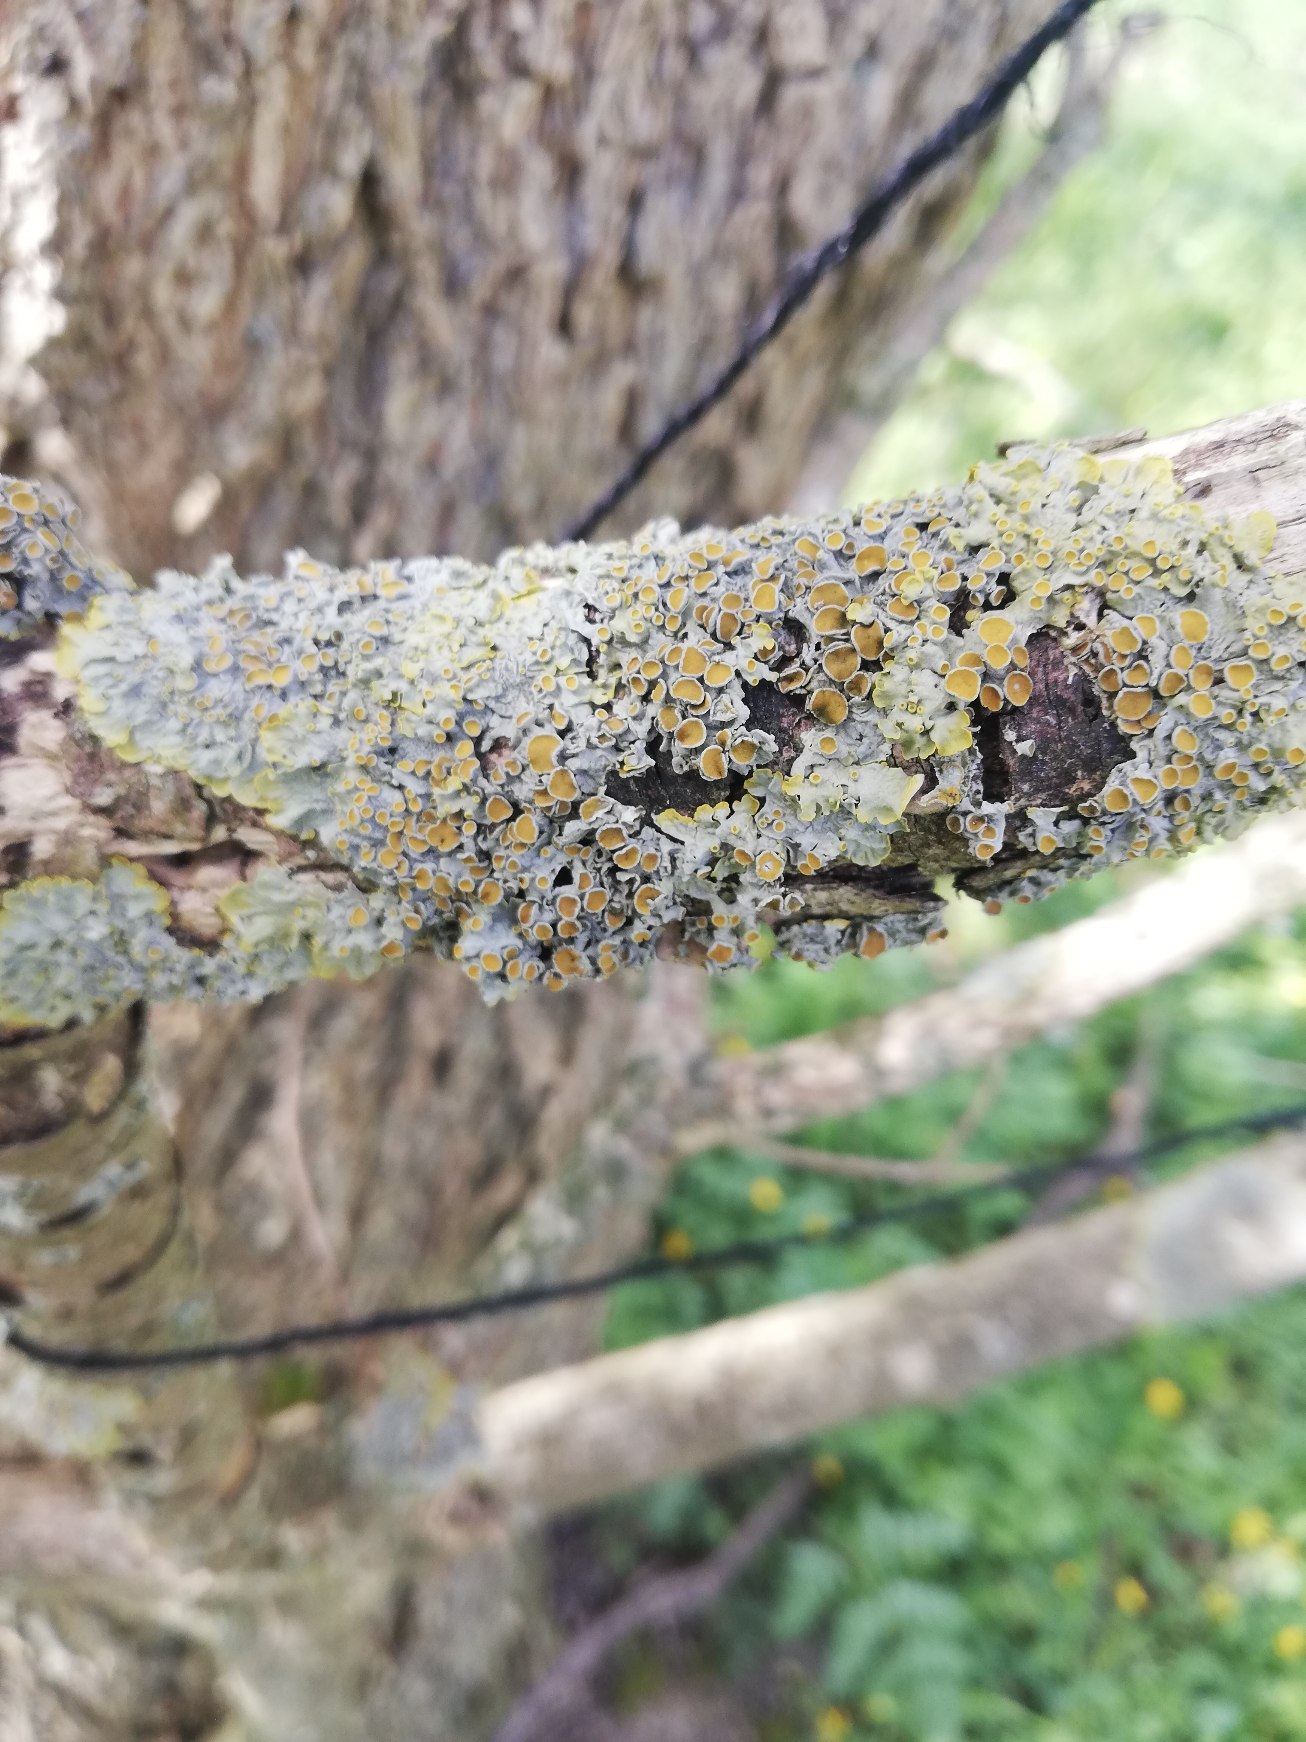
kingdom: Fungi
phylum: Ascomycota
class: Lecanoromycetes
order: Teloschistales
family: Teloschistaceae
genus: Xanthoria
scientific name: Xanthoria parietina
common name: Almindelig væggelav
